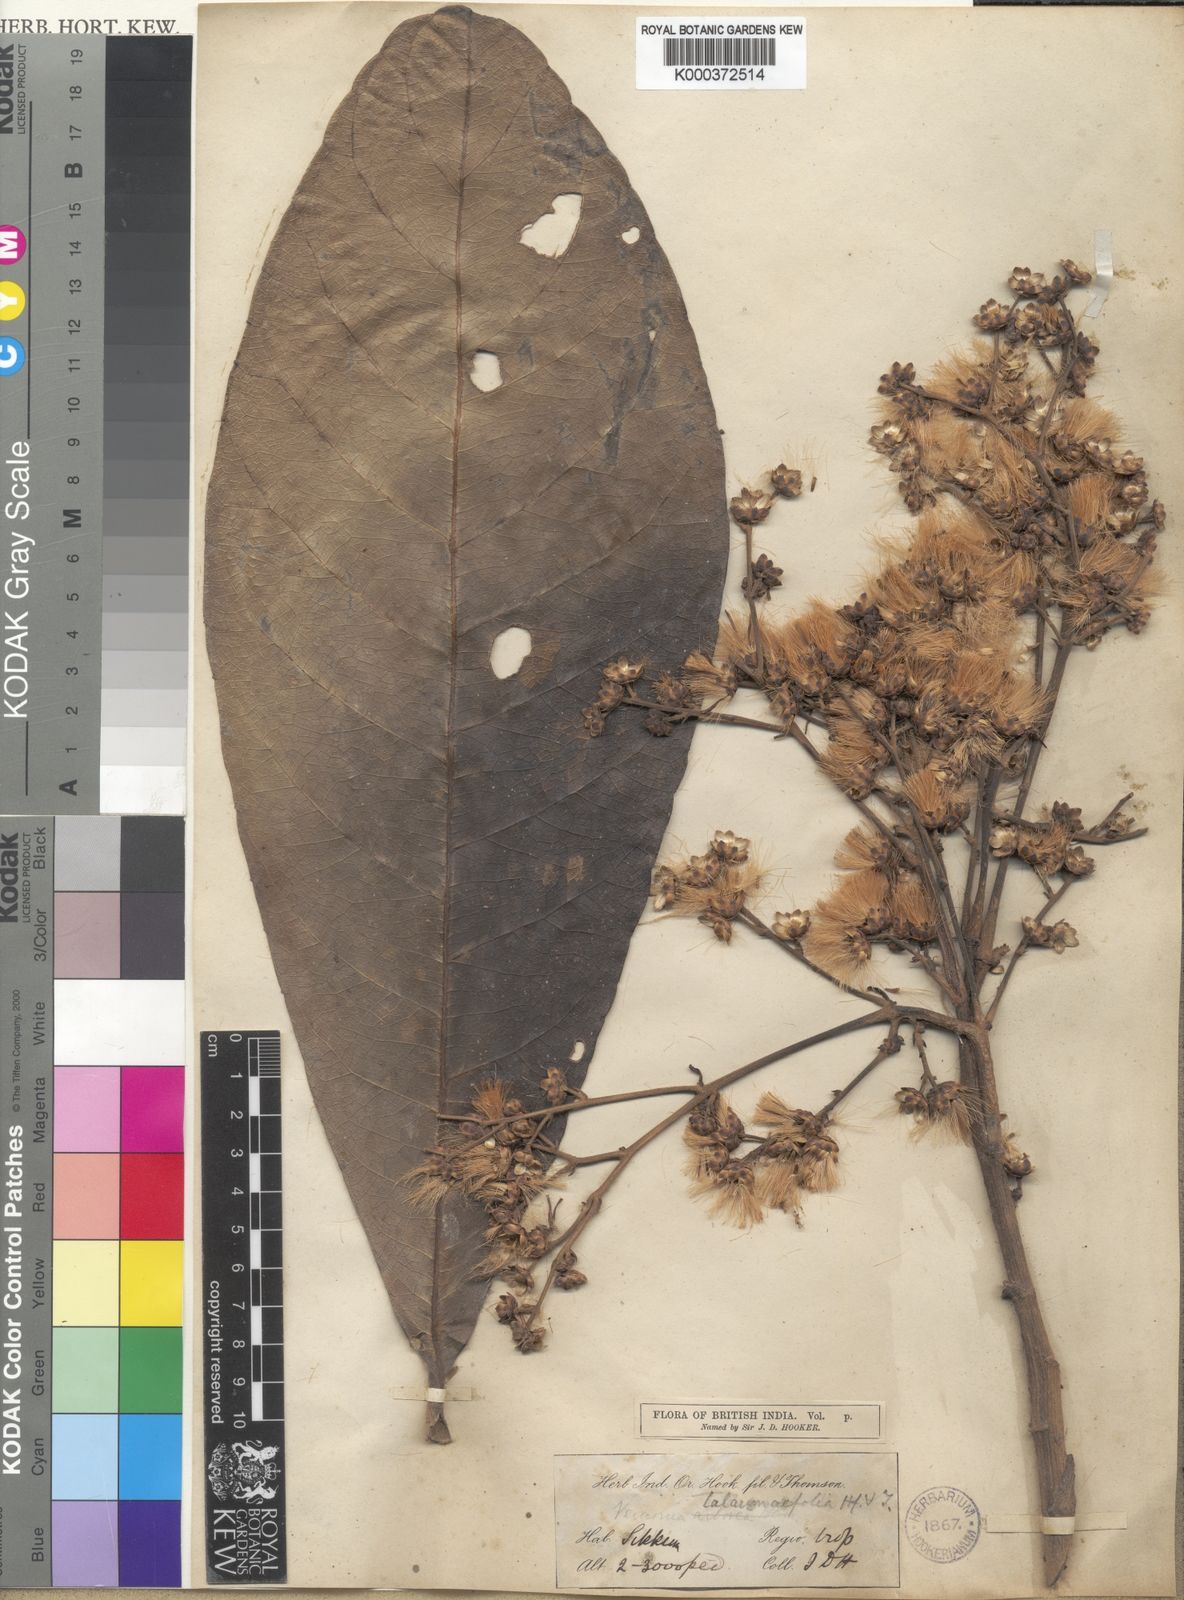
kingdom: Plantae
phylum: Tracheophyta
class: Magnoliopsida
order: Asterales
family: Asteraceae
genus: Monosis
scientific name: Monosis talaumifolia
